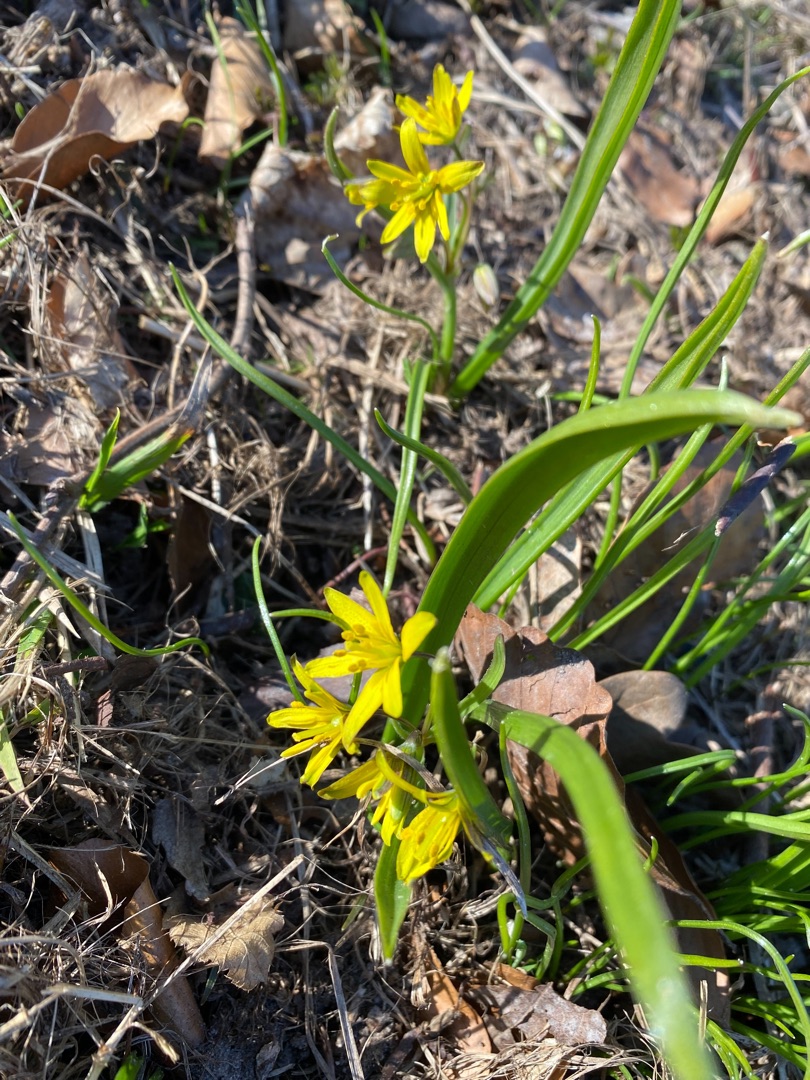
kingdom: Plantae
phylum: Tracheophyta
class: Liliopsida
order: Liliales
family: Liliaceae
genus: Gagea
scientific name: Gagea lutea
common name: Almindelig guldstjerne
